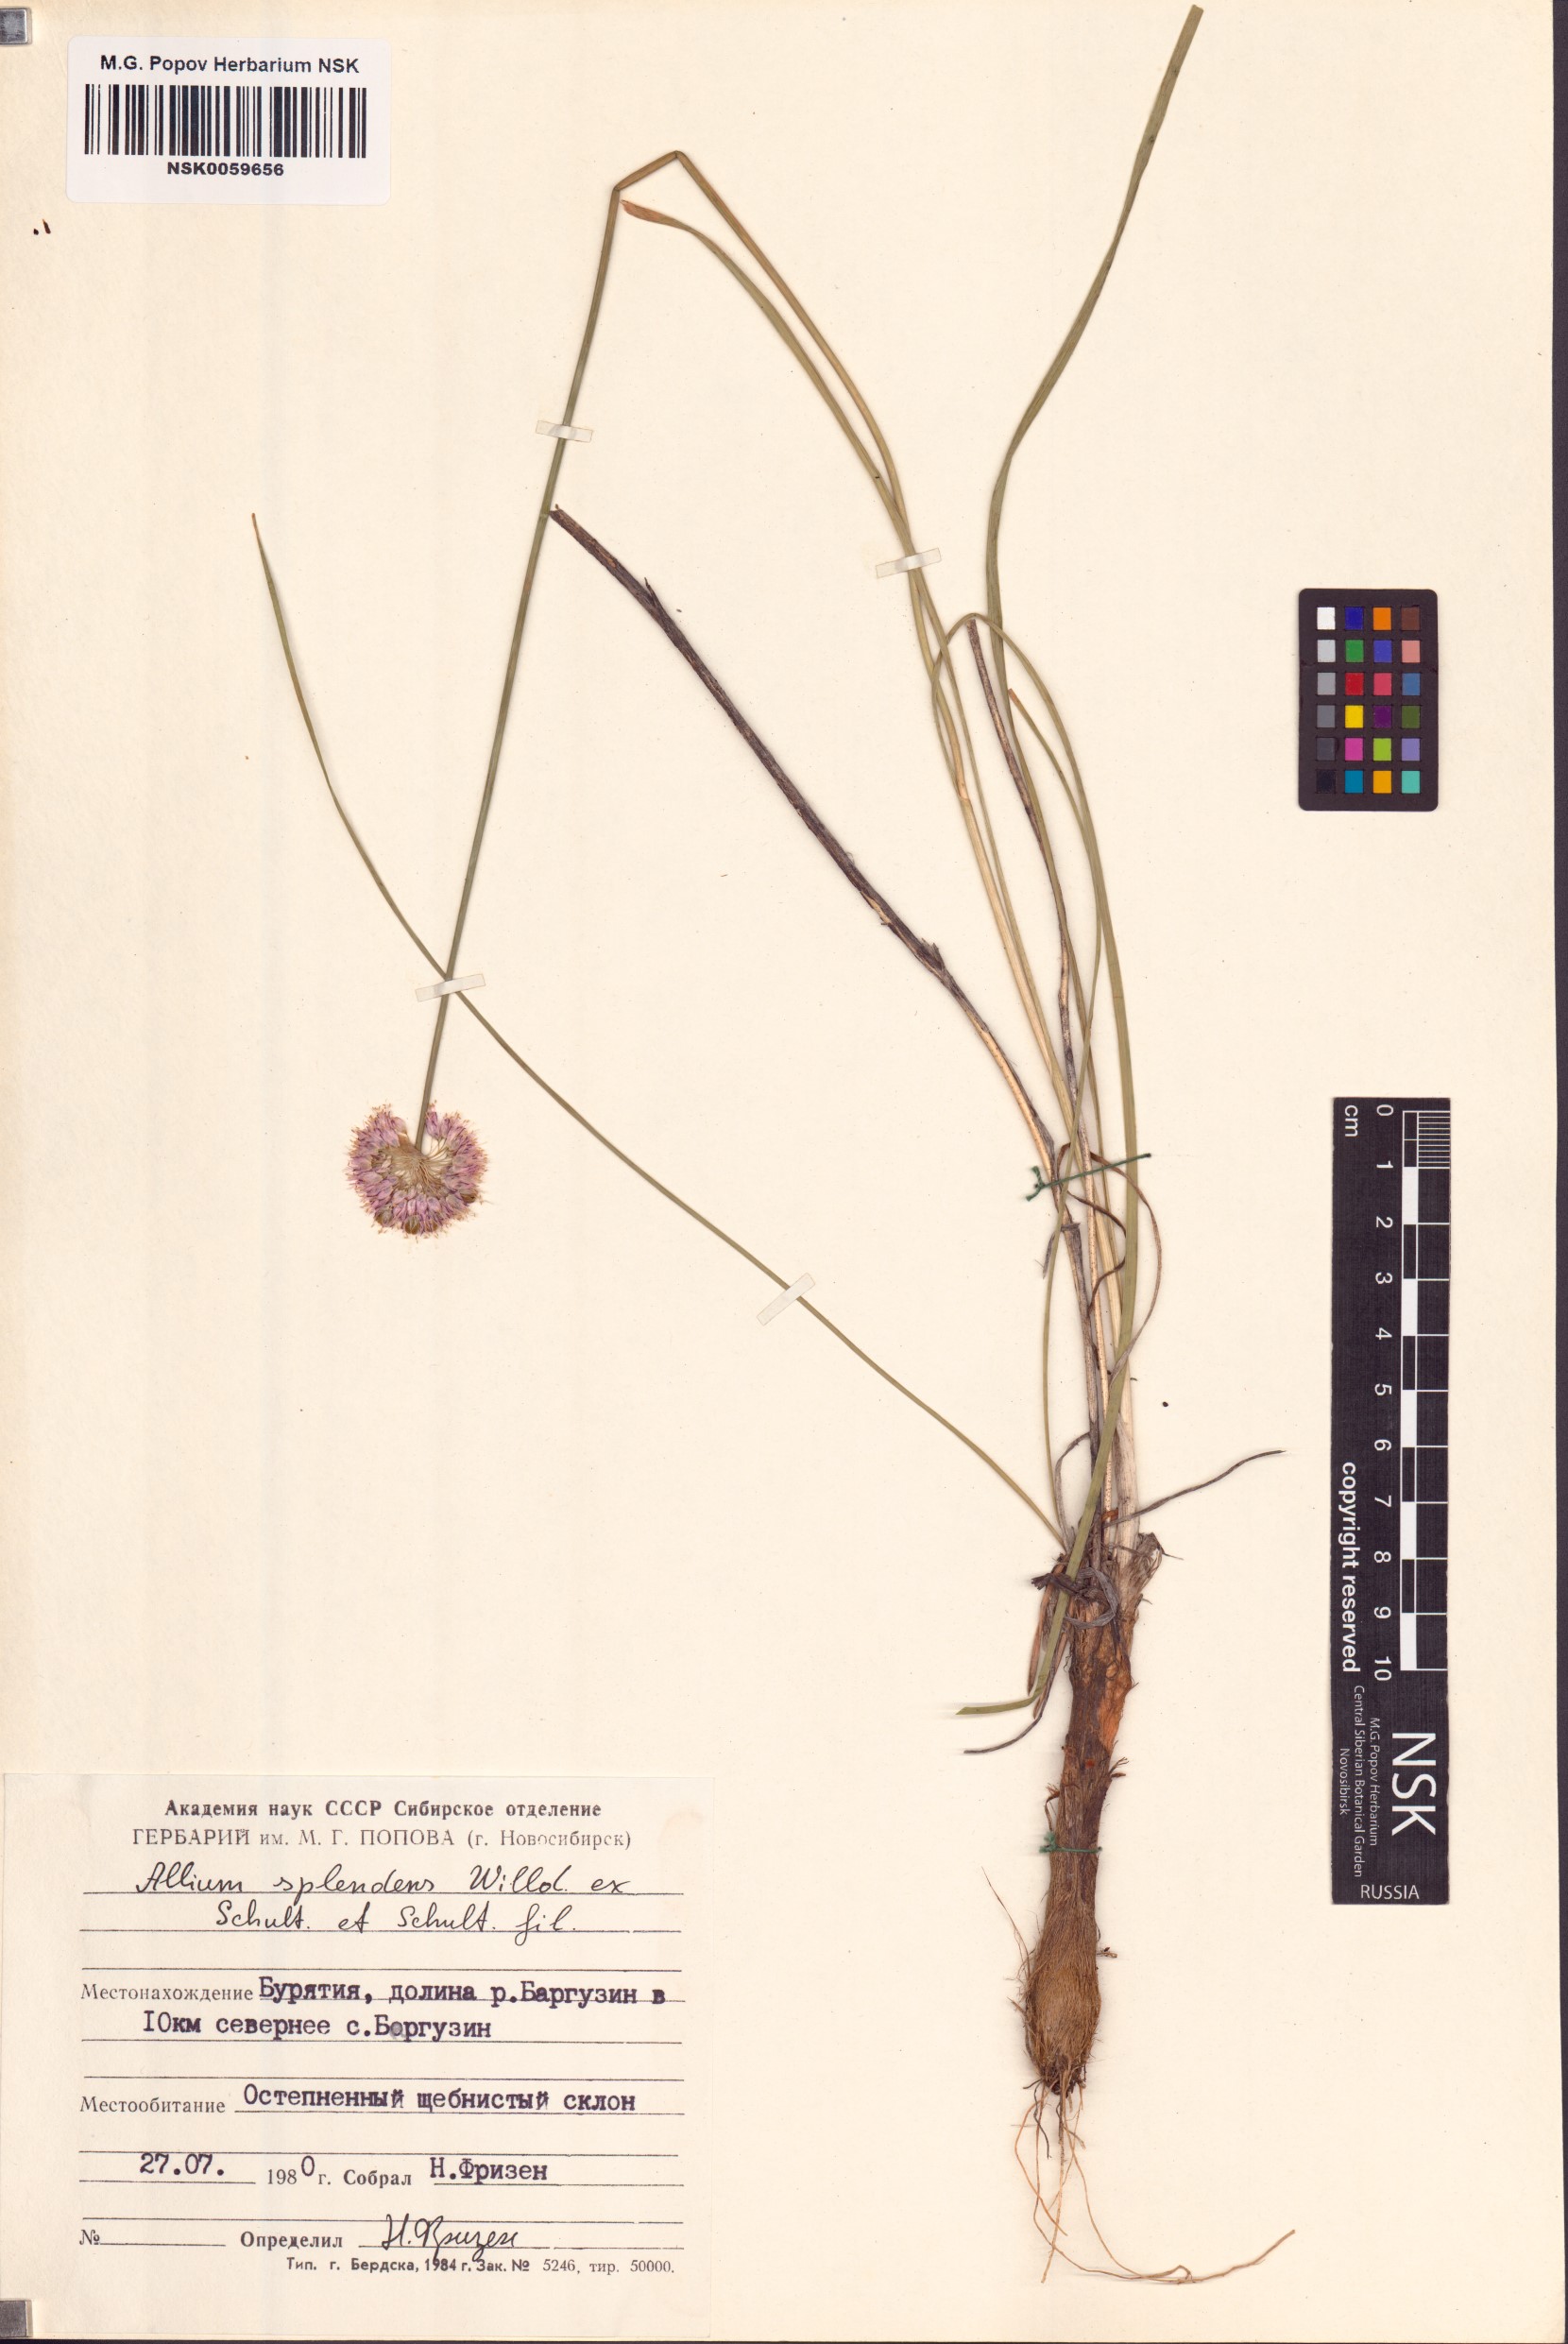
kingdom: Plantae
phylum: Tracheophyta
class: Liliopsida
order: Asparagales
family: Amaryllidaceae
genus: Allium
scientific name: Allium splendens
